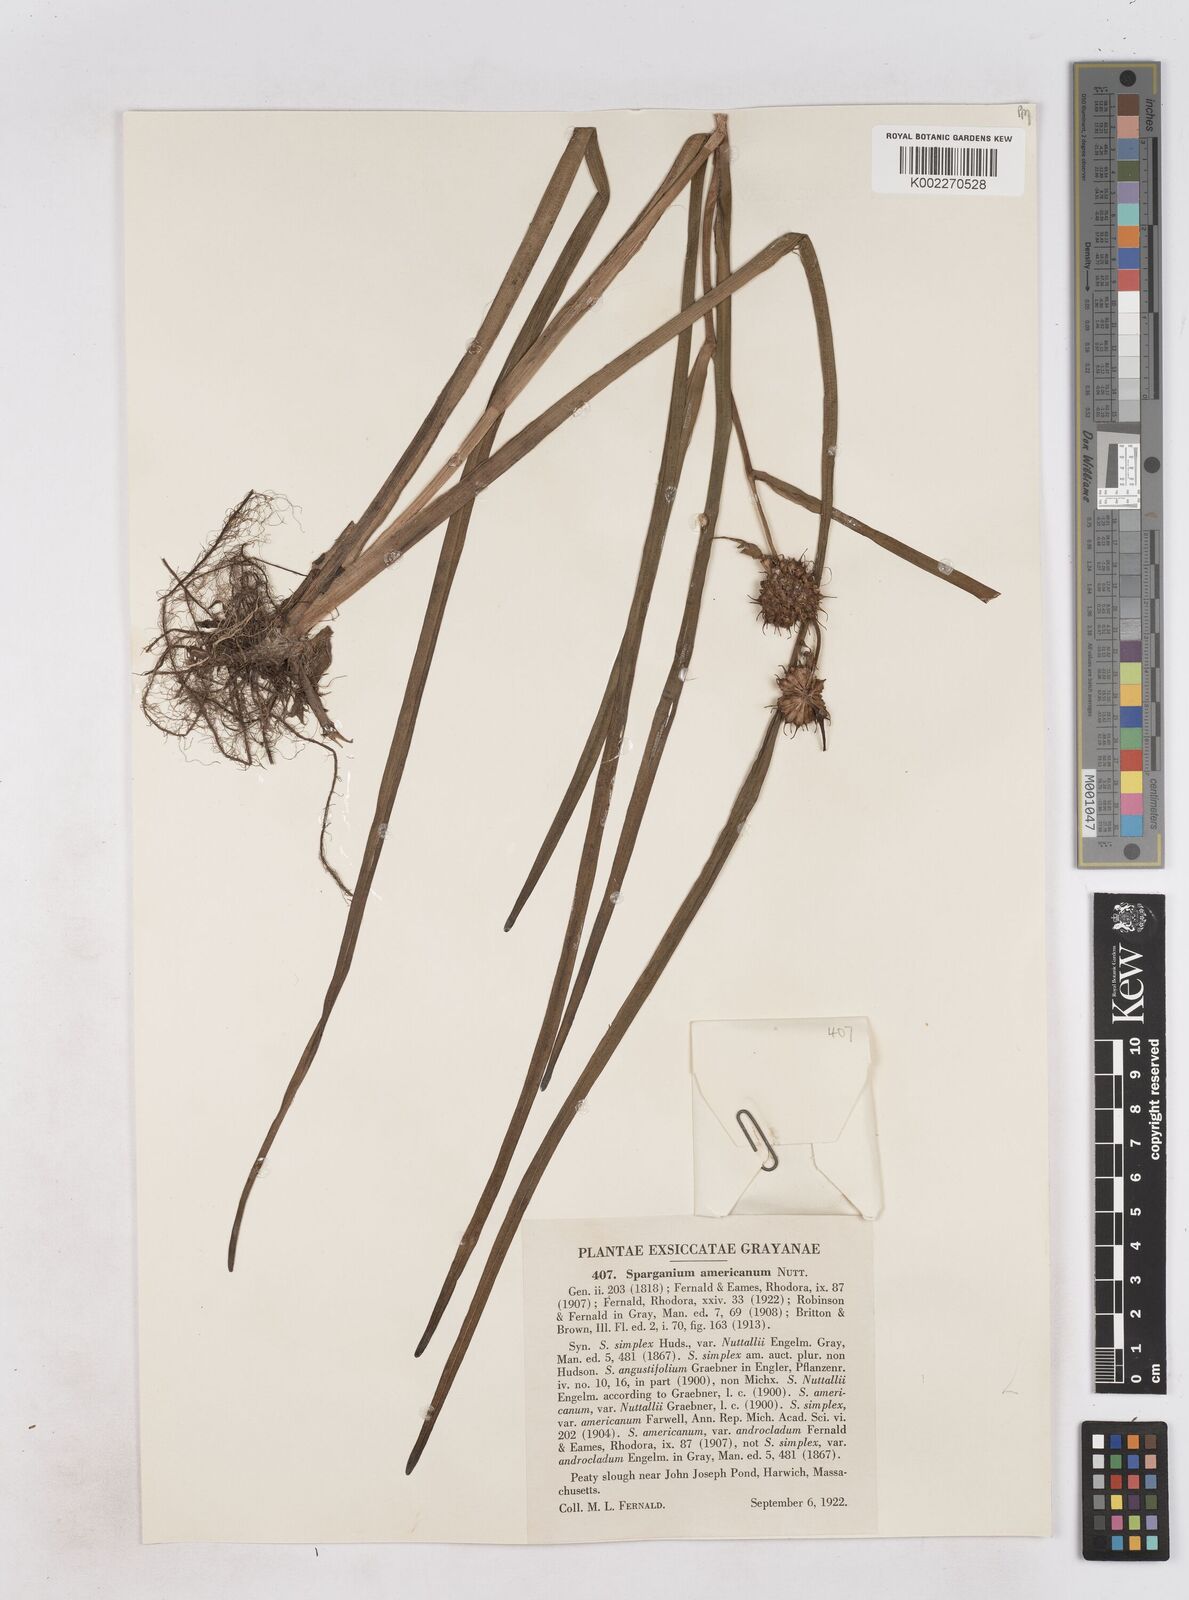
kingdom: Plantae
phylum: Tracheophyta
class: Liliopsida
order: Poales
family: Typhaceae
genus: Sparganium
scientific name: Sparganium americanum
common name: American burreed
